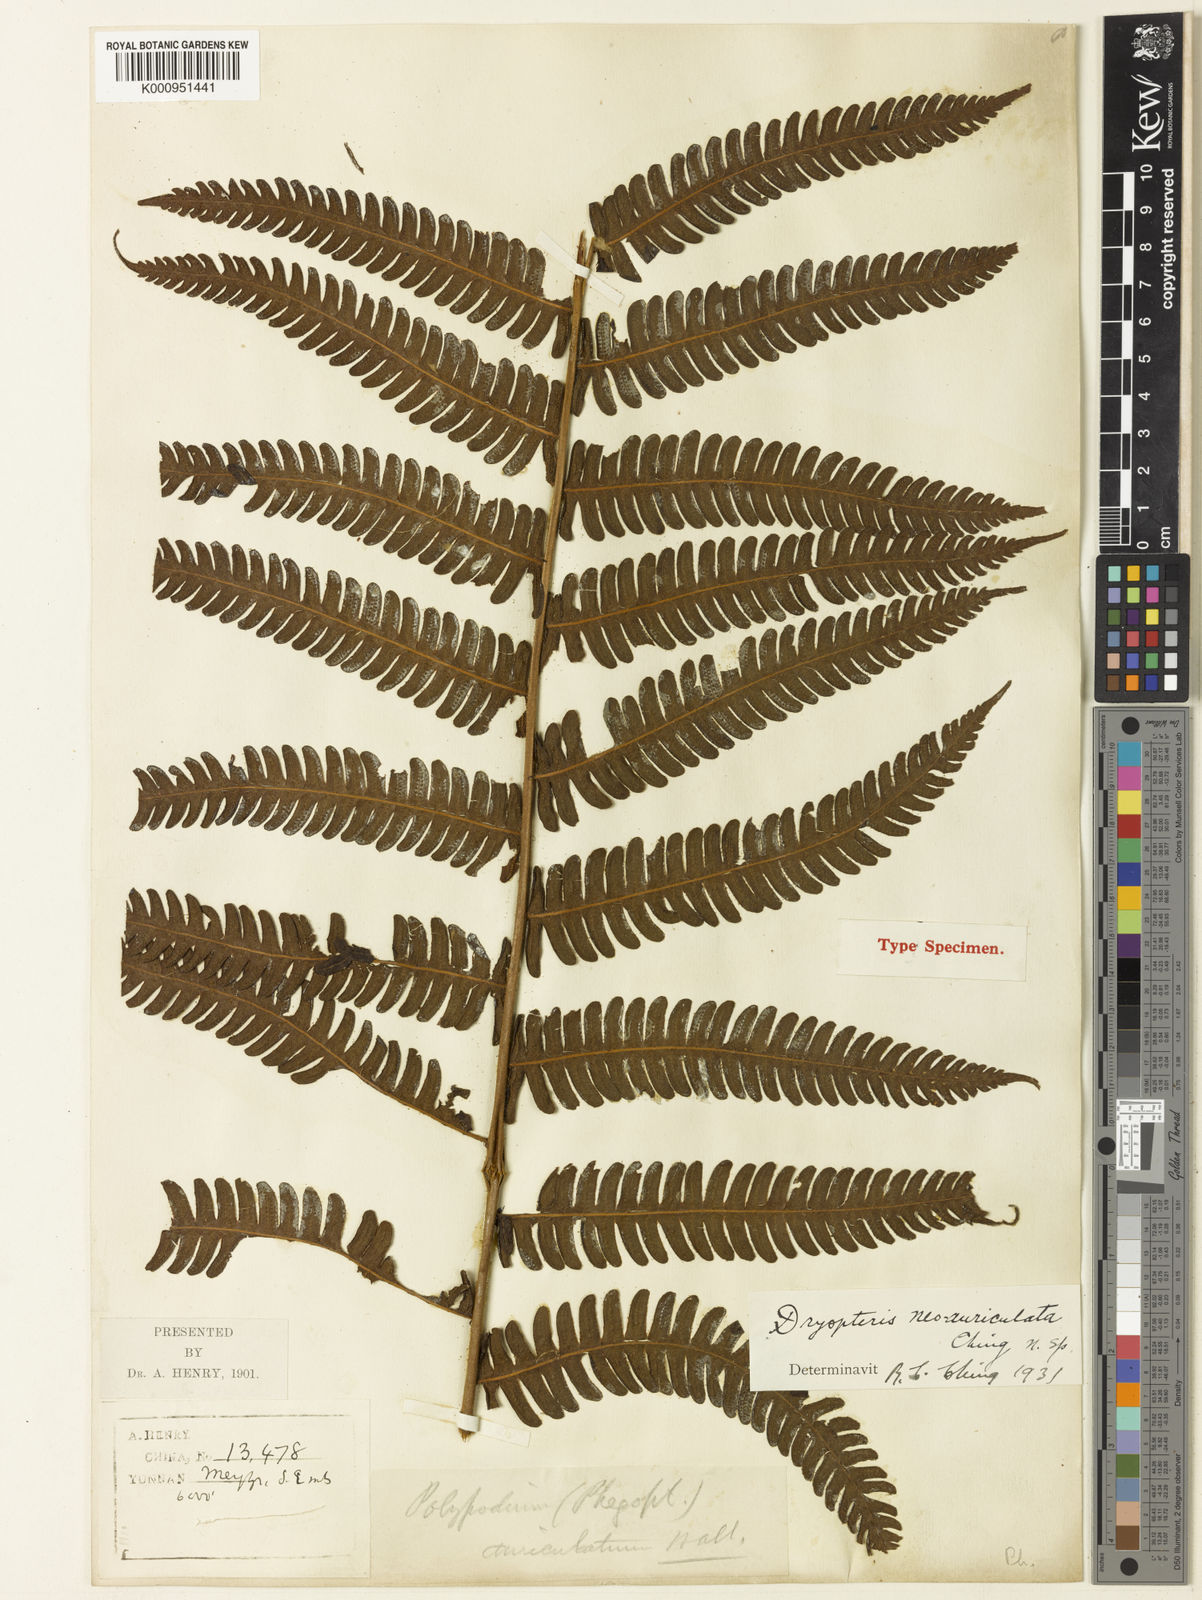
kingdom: Plantae
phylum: Tracheophyta
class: Polypodiopsida
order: Polypodiales
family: Thelypteridaceae
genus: Cyclogramma
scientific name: Cyclogramma neoauriculata
